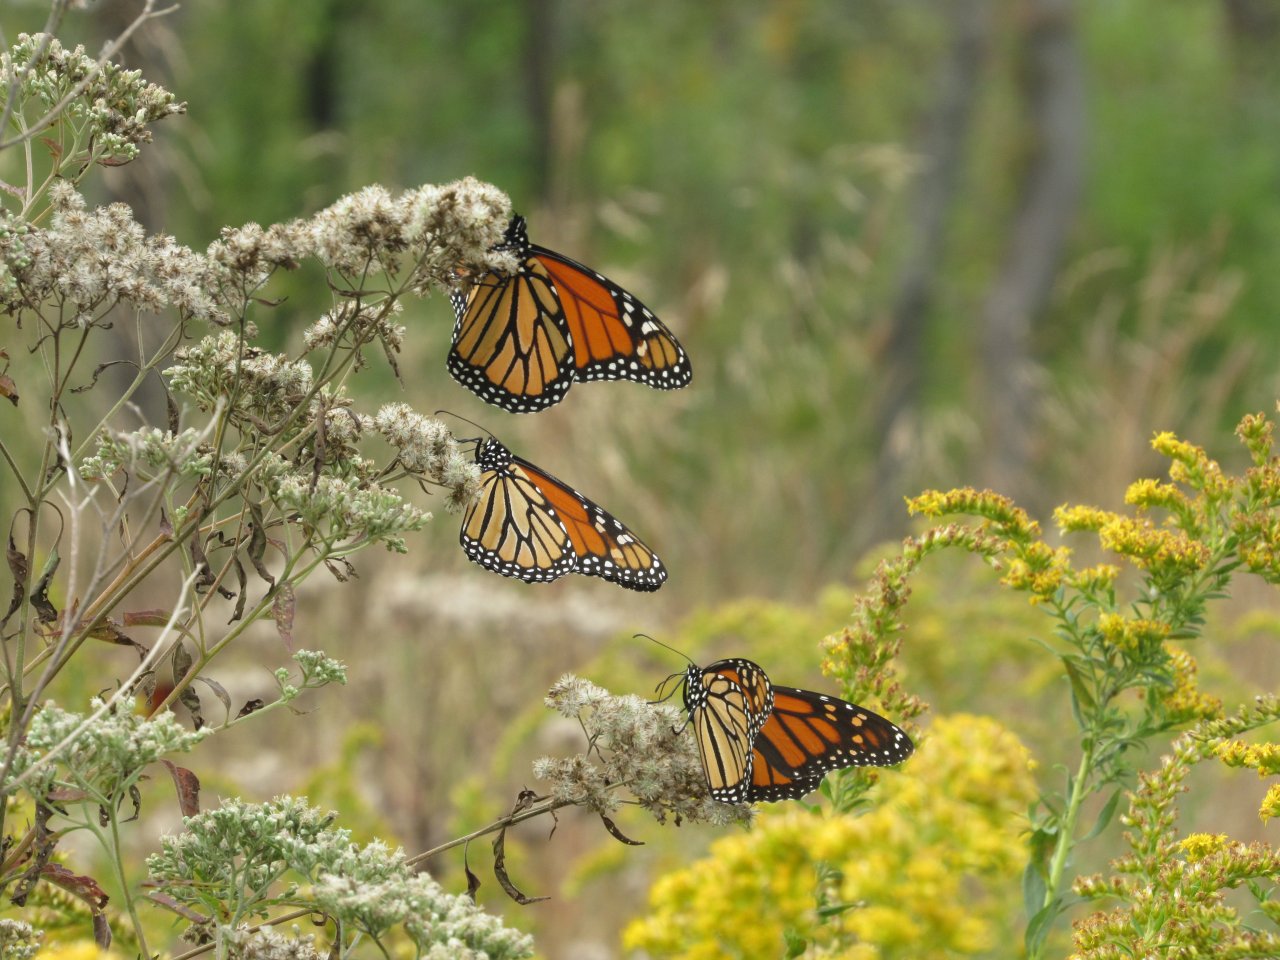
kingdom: Animalia
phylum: Arthropoda
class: Insecta
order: Lepidoptera
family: Nymphalidae
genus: Danaus
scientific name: Danaus plexippus
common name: Monarch
